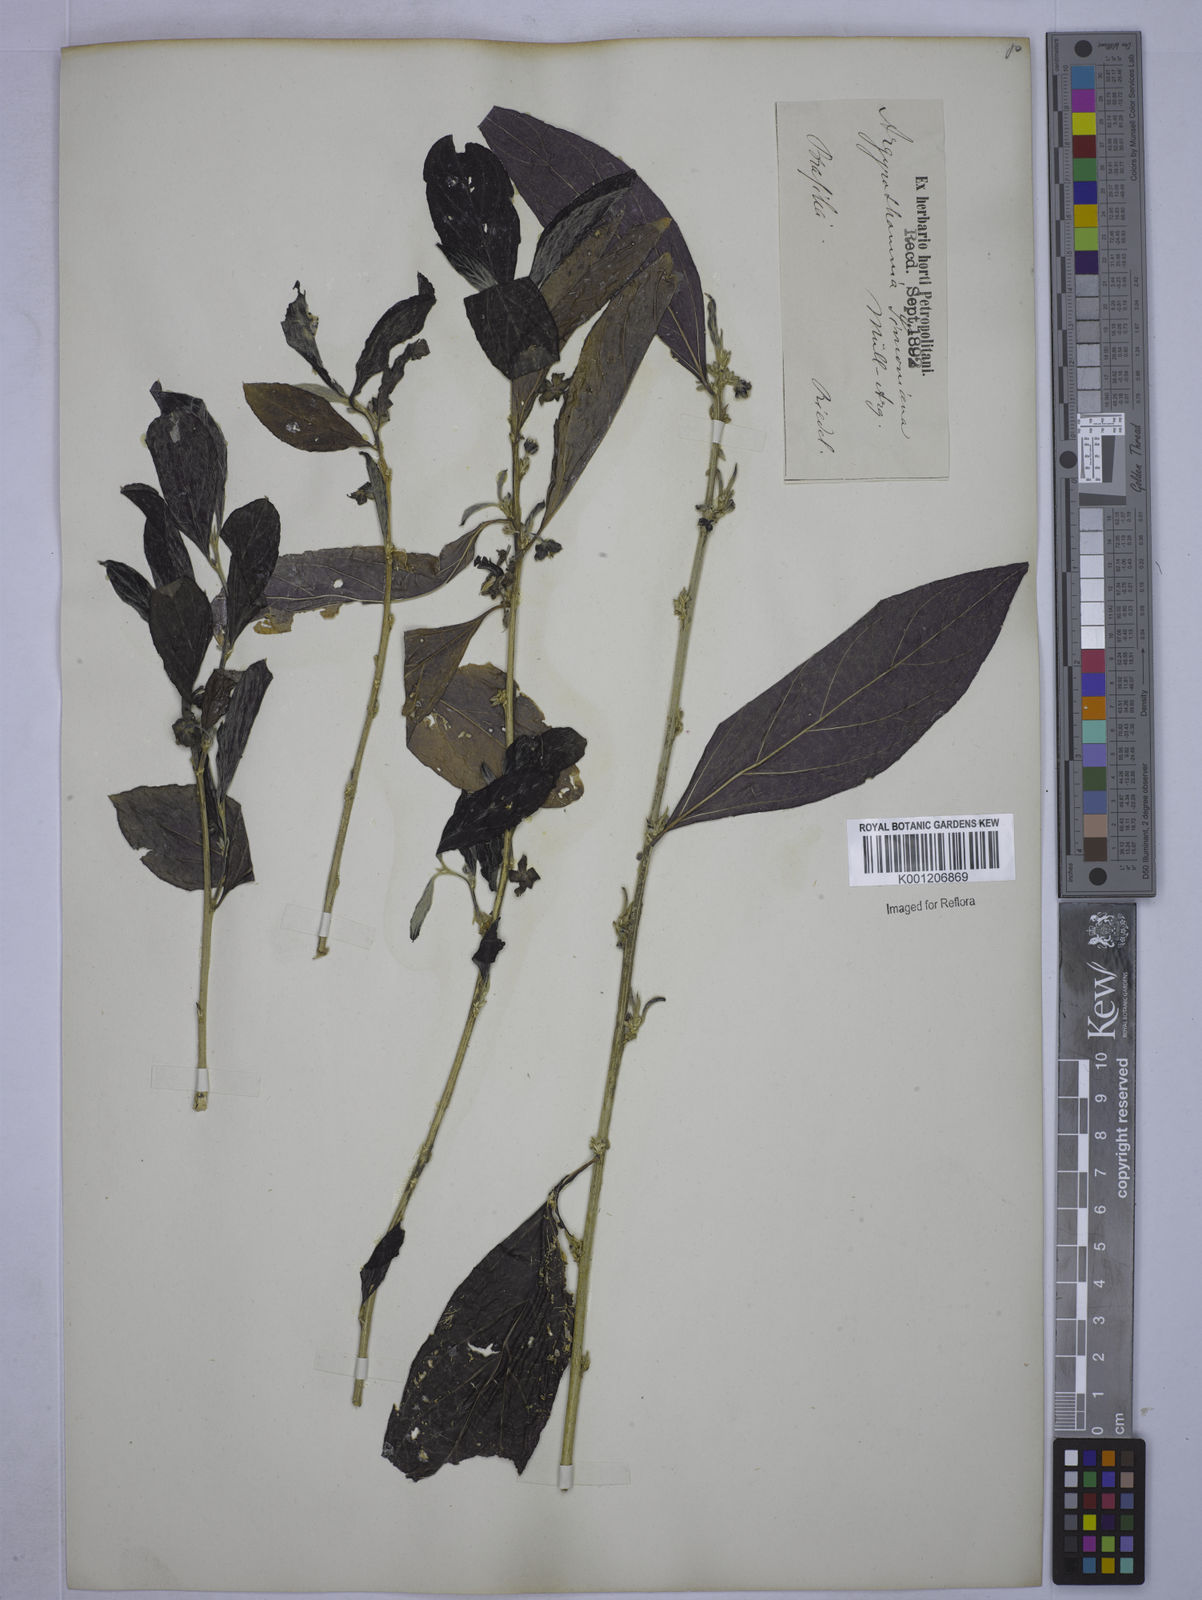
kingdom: Plantae
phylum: Tracheophyta
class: Magnoliopsida
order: Malpighiales
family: Euphorbiaceae
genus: Ditaxis
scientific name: Ditaxis simoniana
